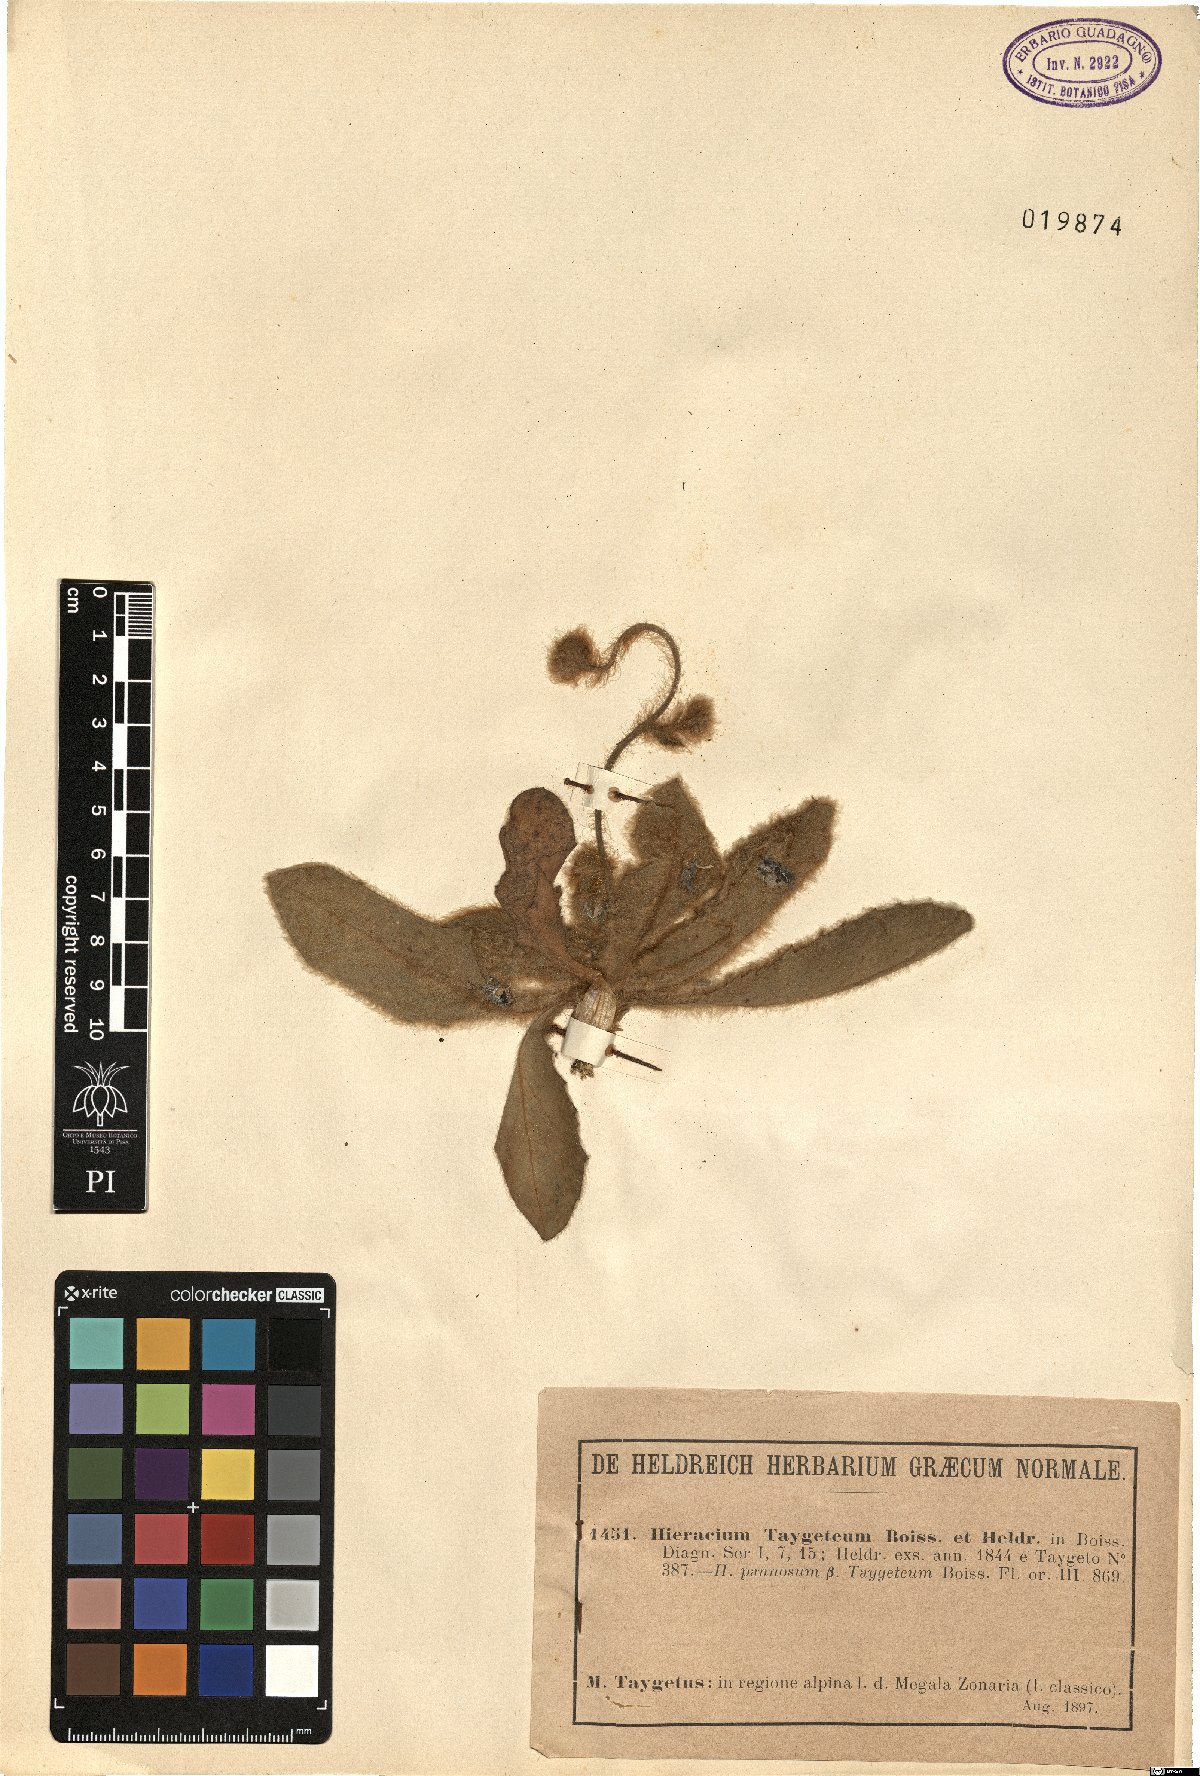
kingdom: Plantae
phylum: Tracheophyta
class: Magnoliopsida
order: Asterales
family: Asteraceae
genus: Hieracium
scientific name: Hieracium pannosum
